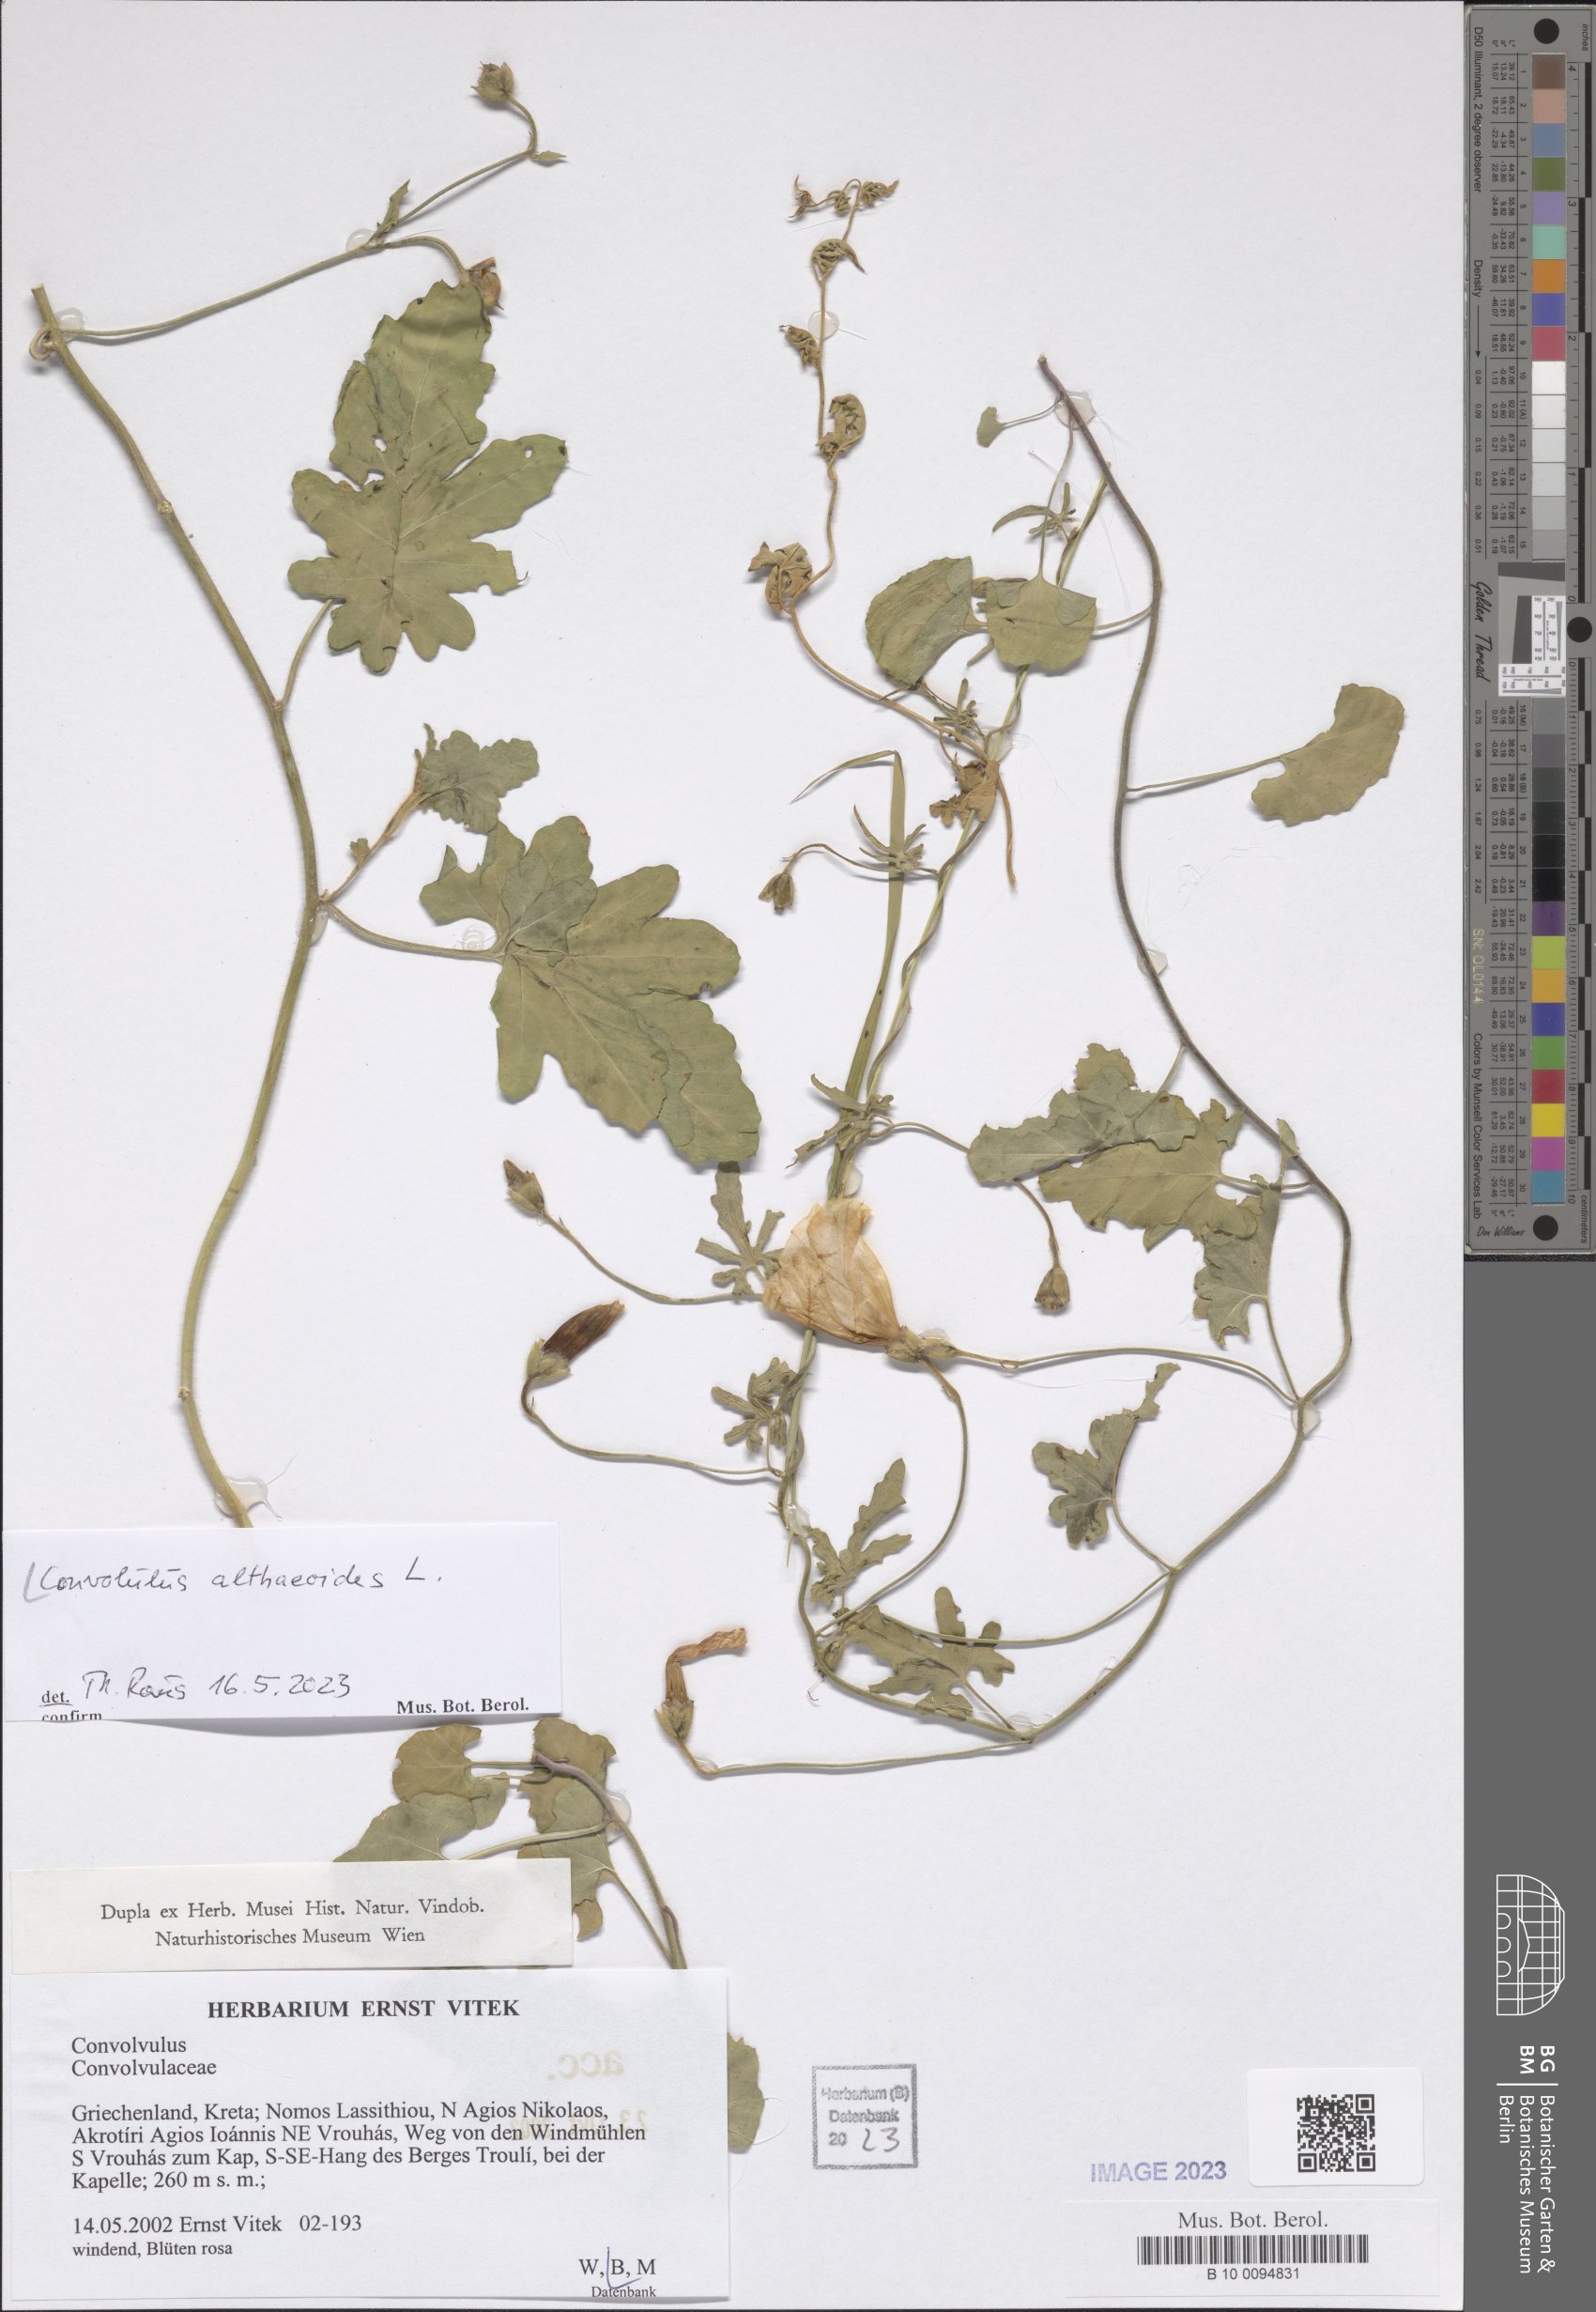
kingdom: Plantae
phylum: Tracheophyta
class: Magnoliopsida
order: Solanales
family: Convolvulaceae
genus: Convolvulus
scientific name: Convolvulus althaeoides
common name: Mallow bindweed
